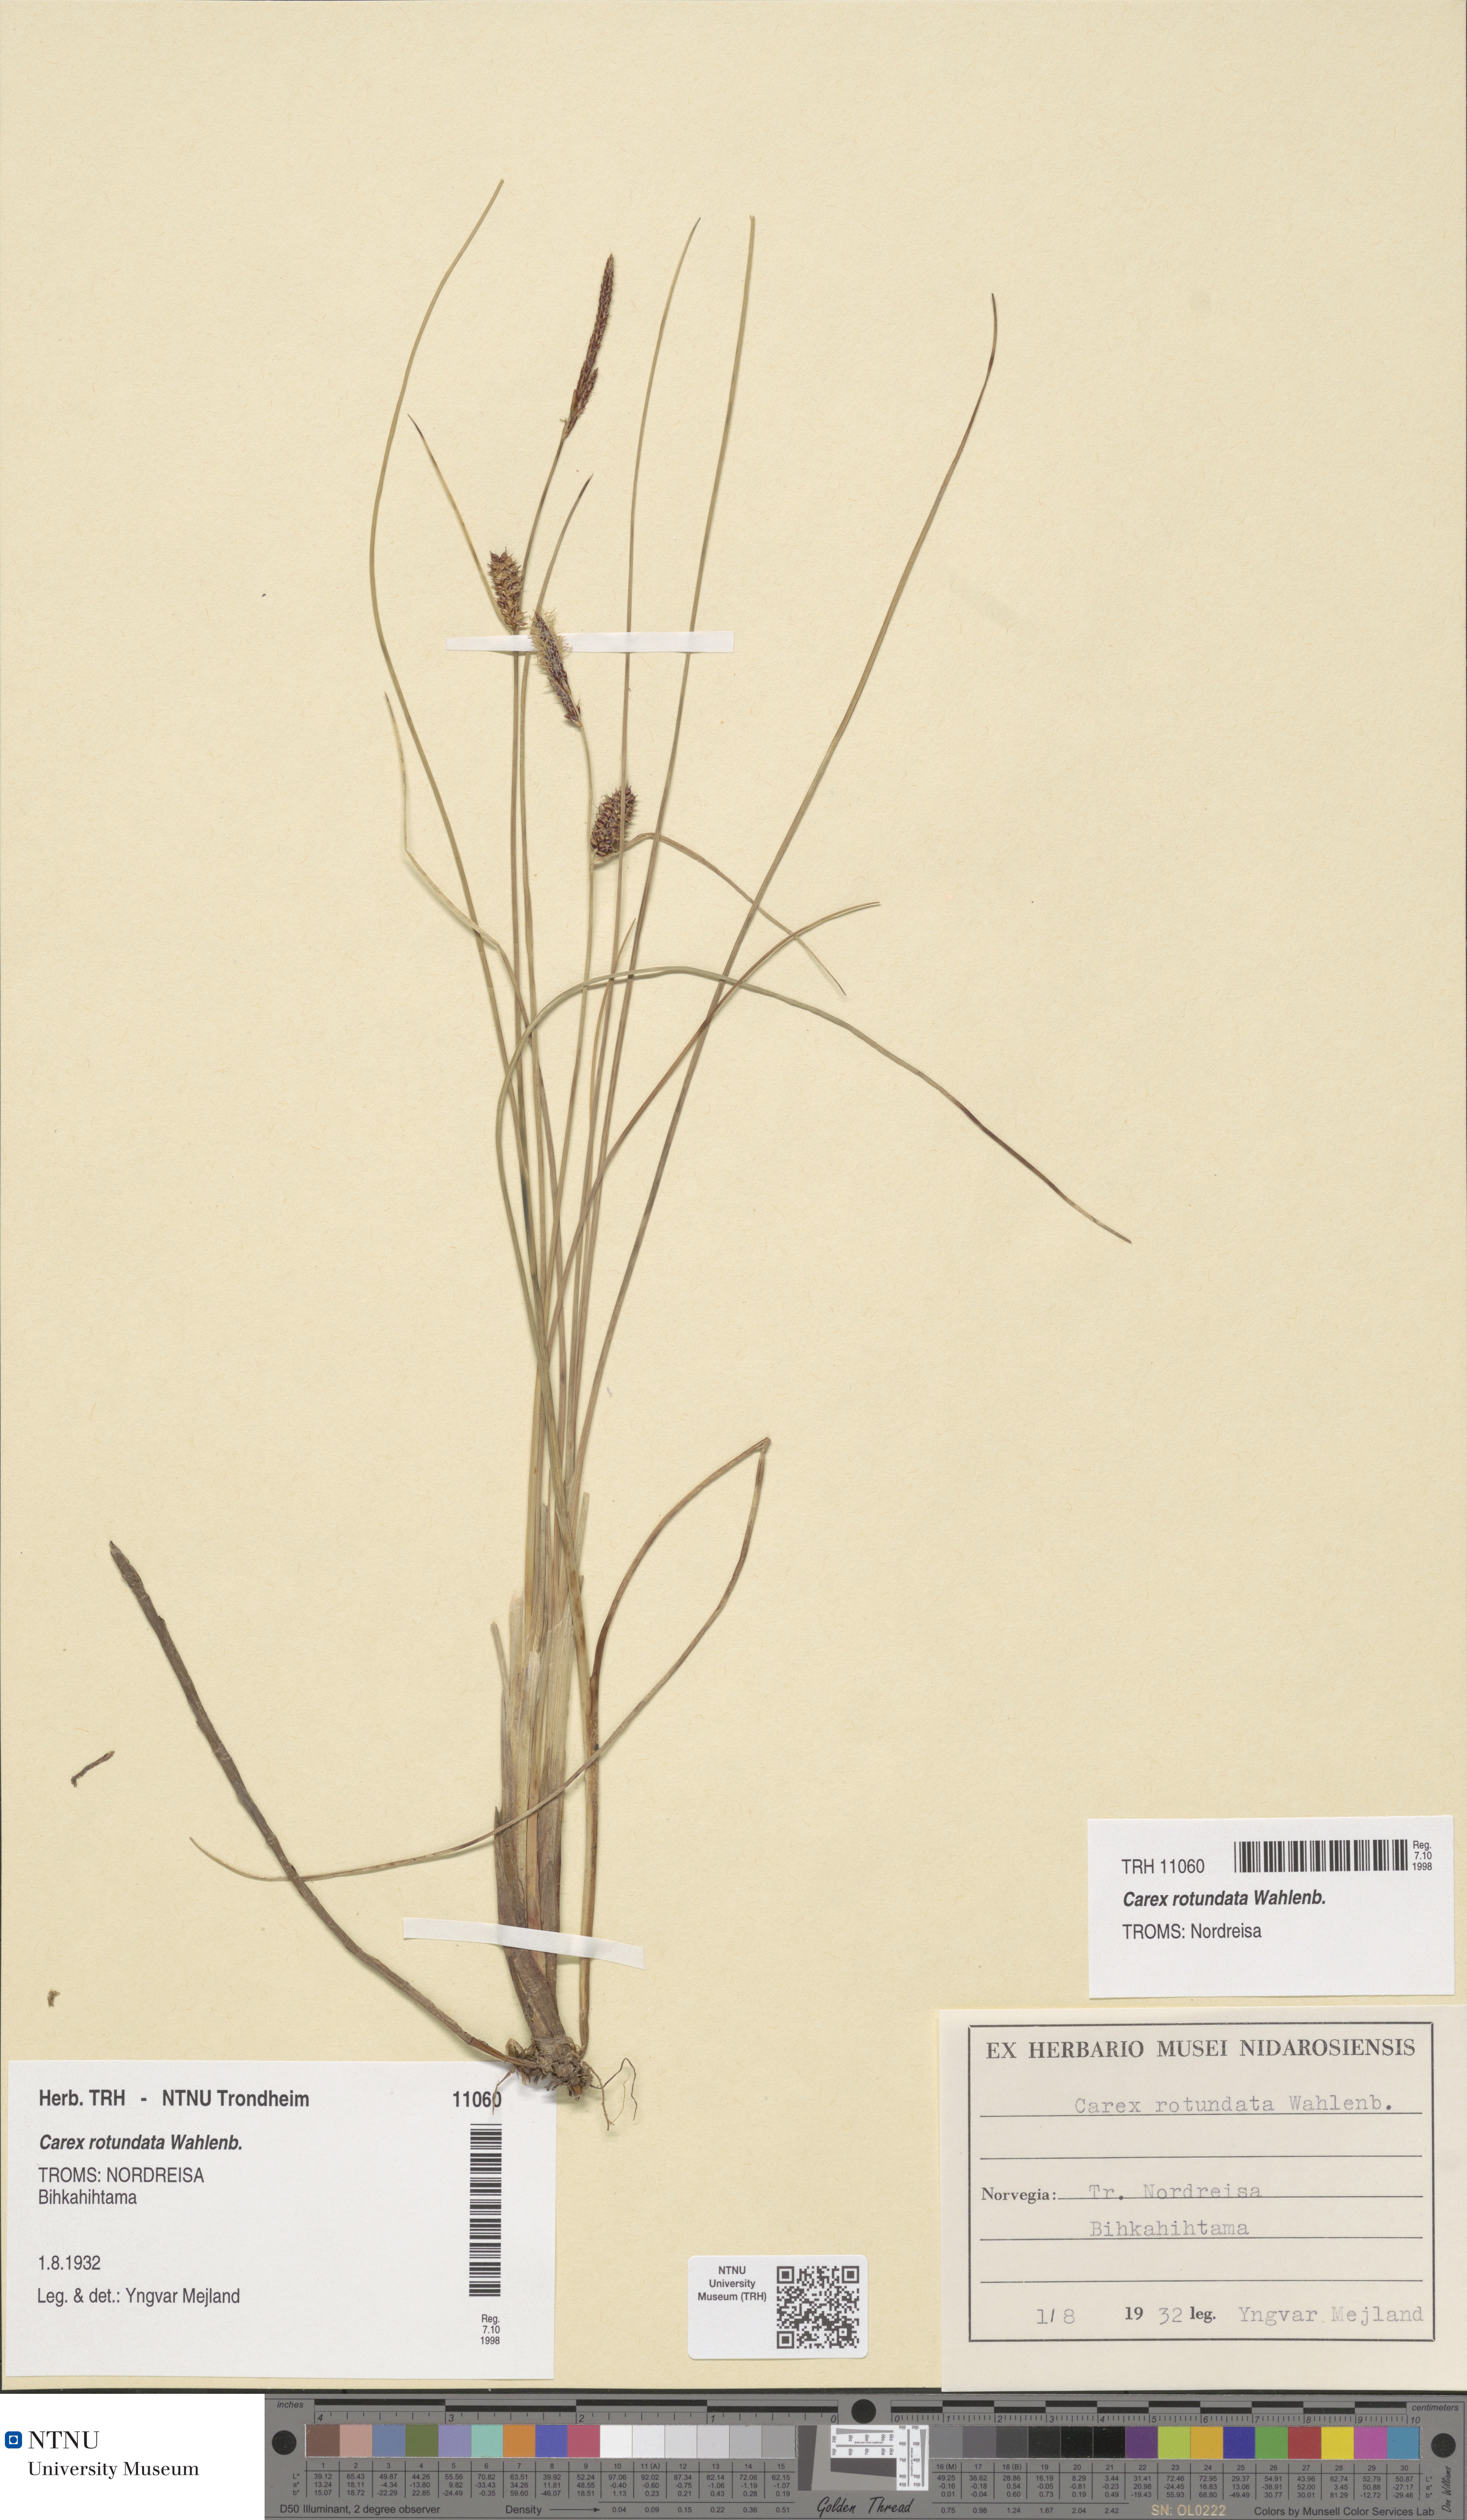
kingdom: Plantae
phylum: Tracheophyta
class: Liliopsida
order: Poales
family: Cyperaceae
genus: Carex
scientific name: Carex rotundata
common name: Round-fruited sedge
